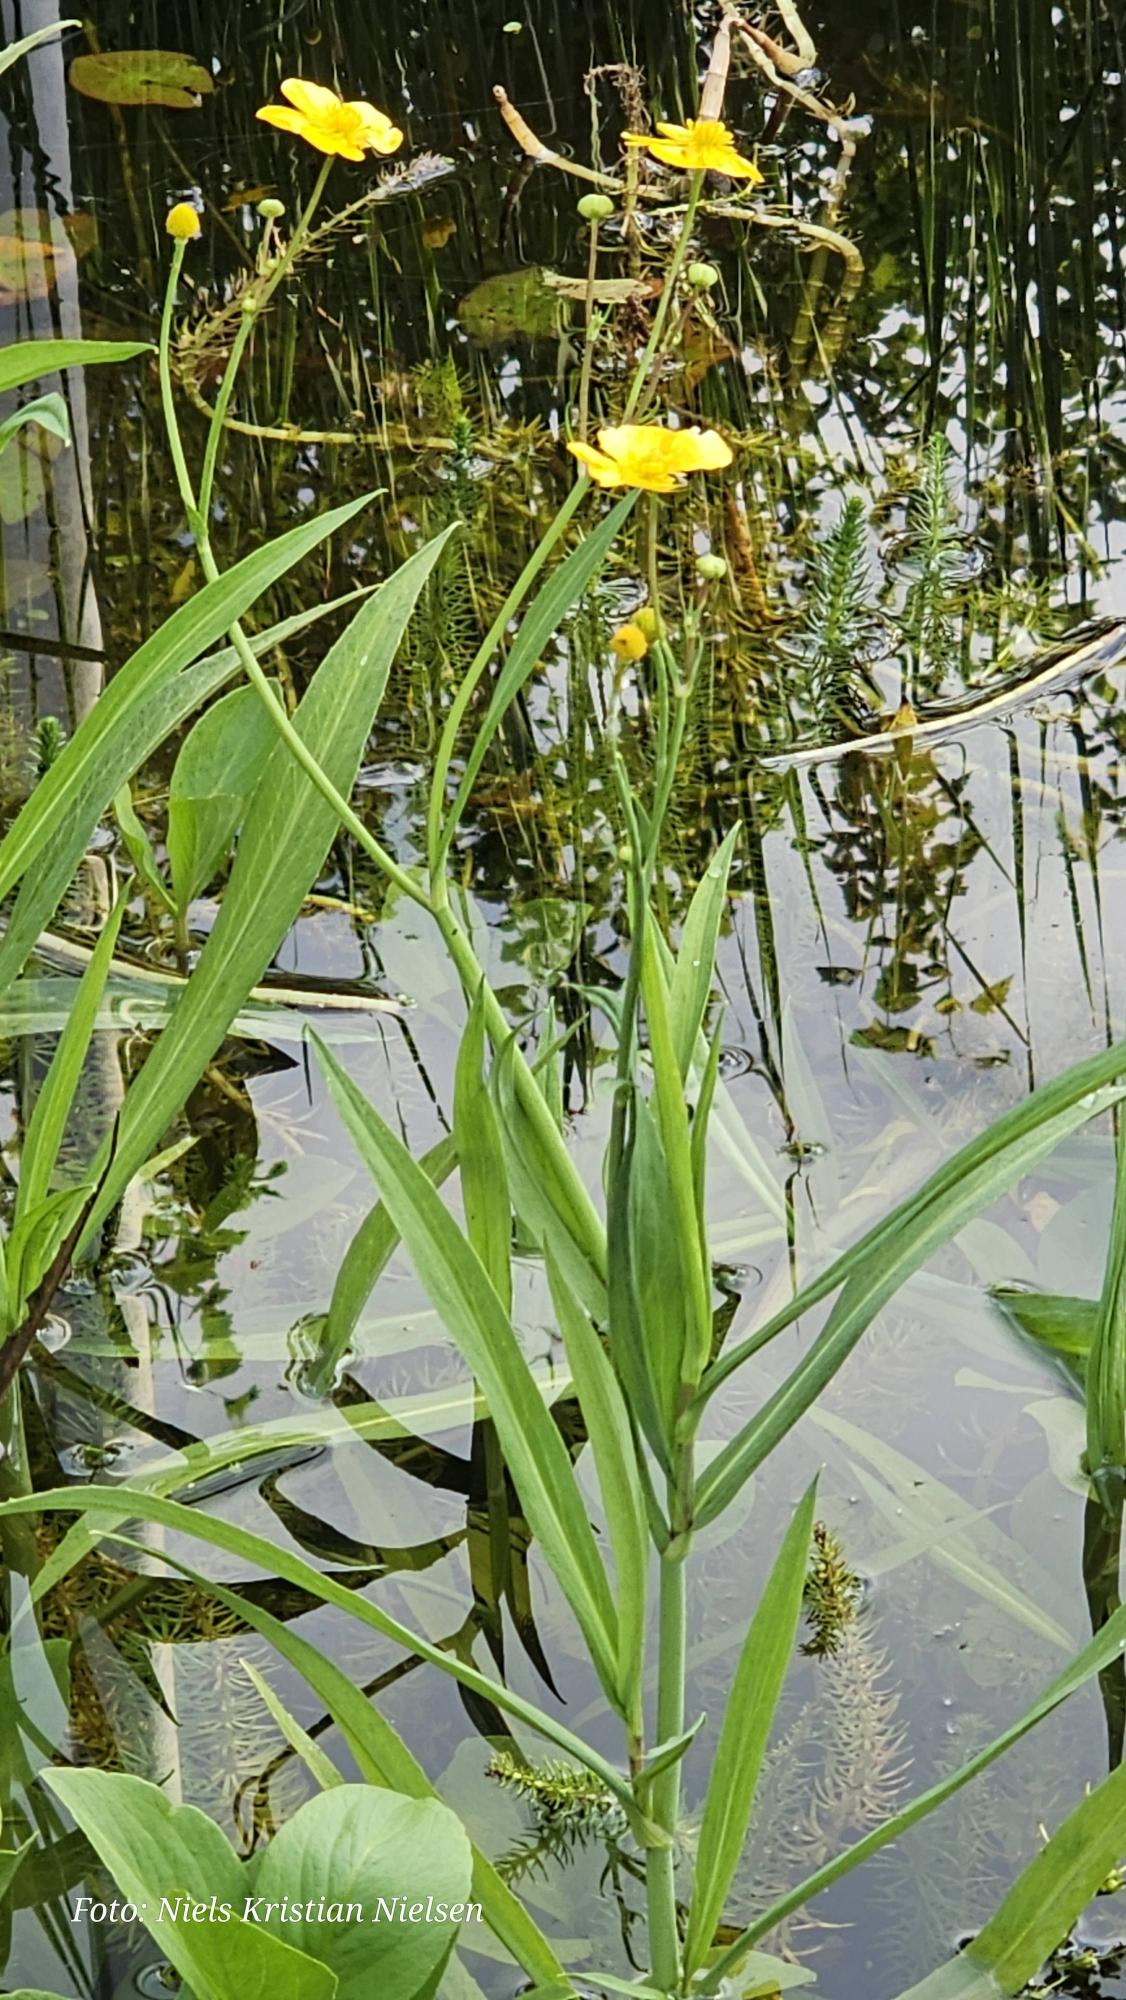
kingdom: Plantae
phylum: Tracheophyta
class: Magnoliopsida
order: Ranunculales
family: Ranunculaceae
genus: Ranunculus
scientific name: Ranunculus lingua
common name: Langbladet ranunkel
